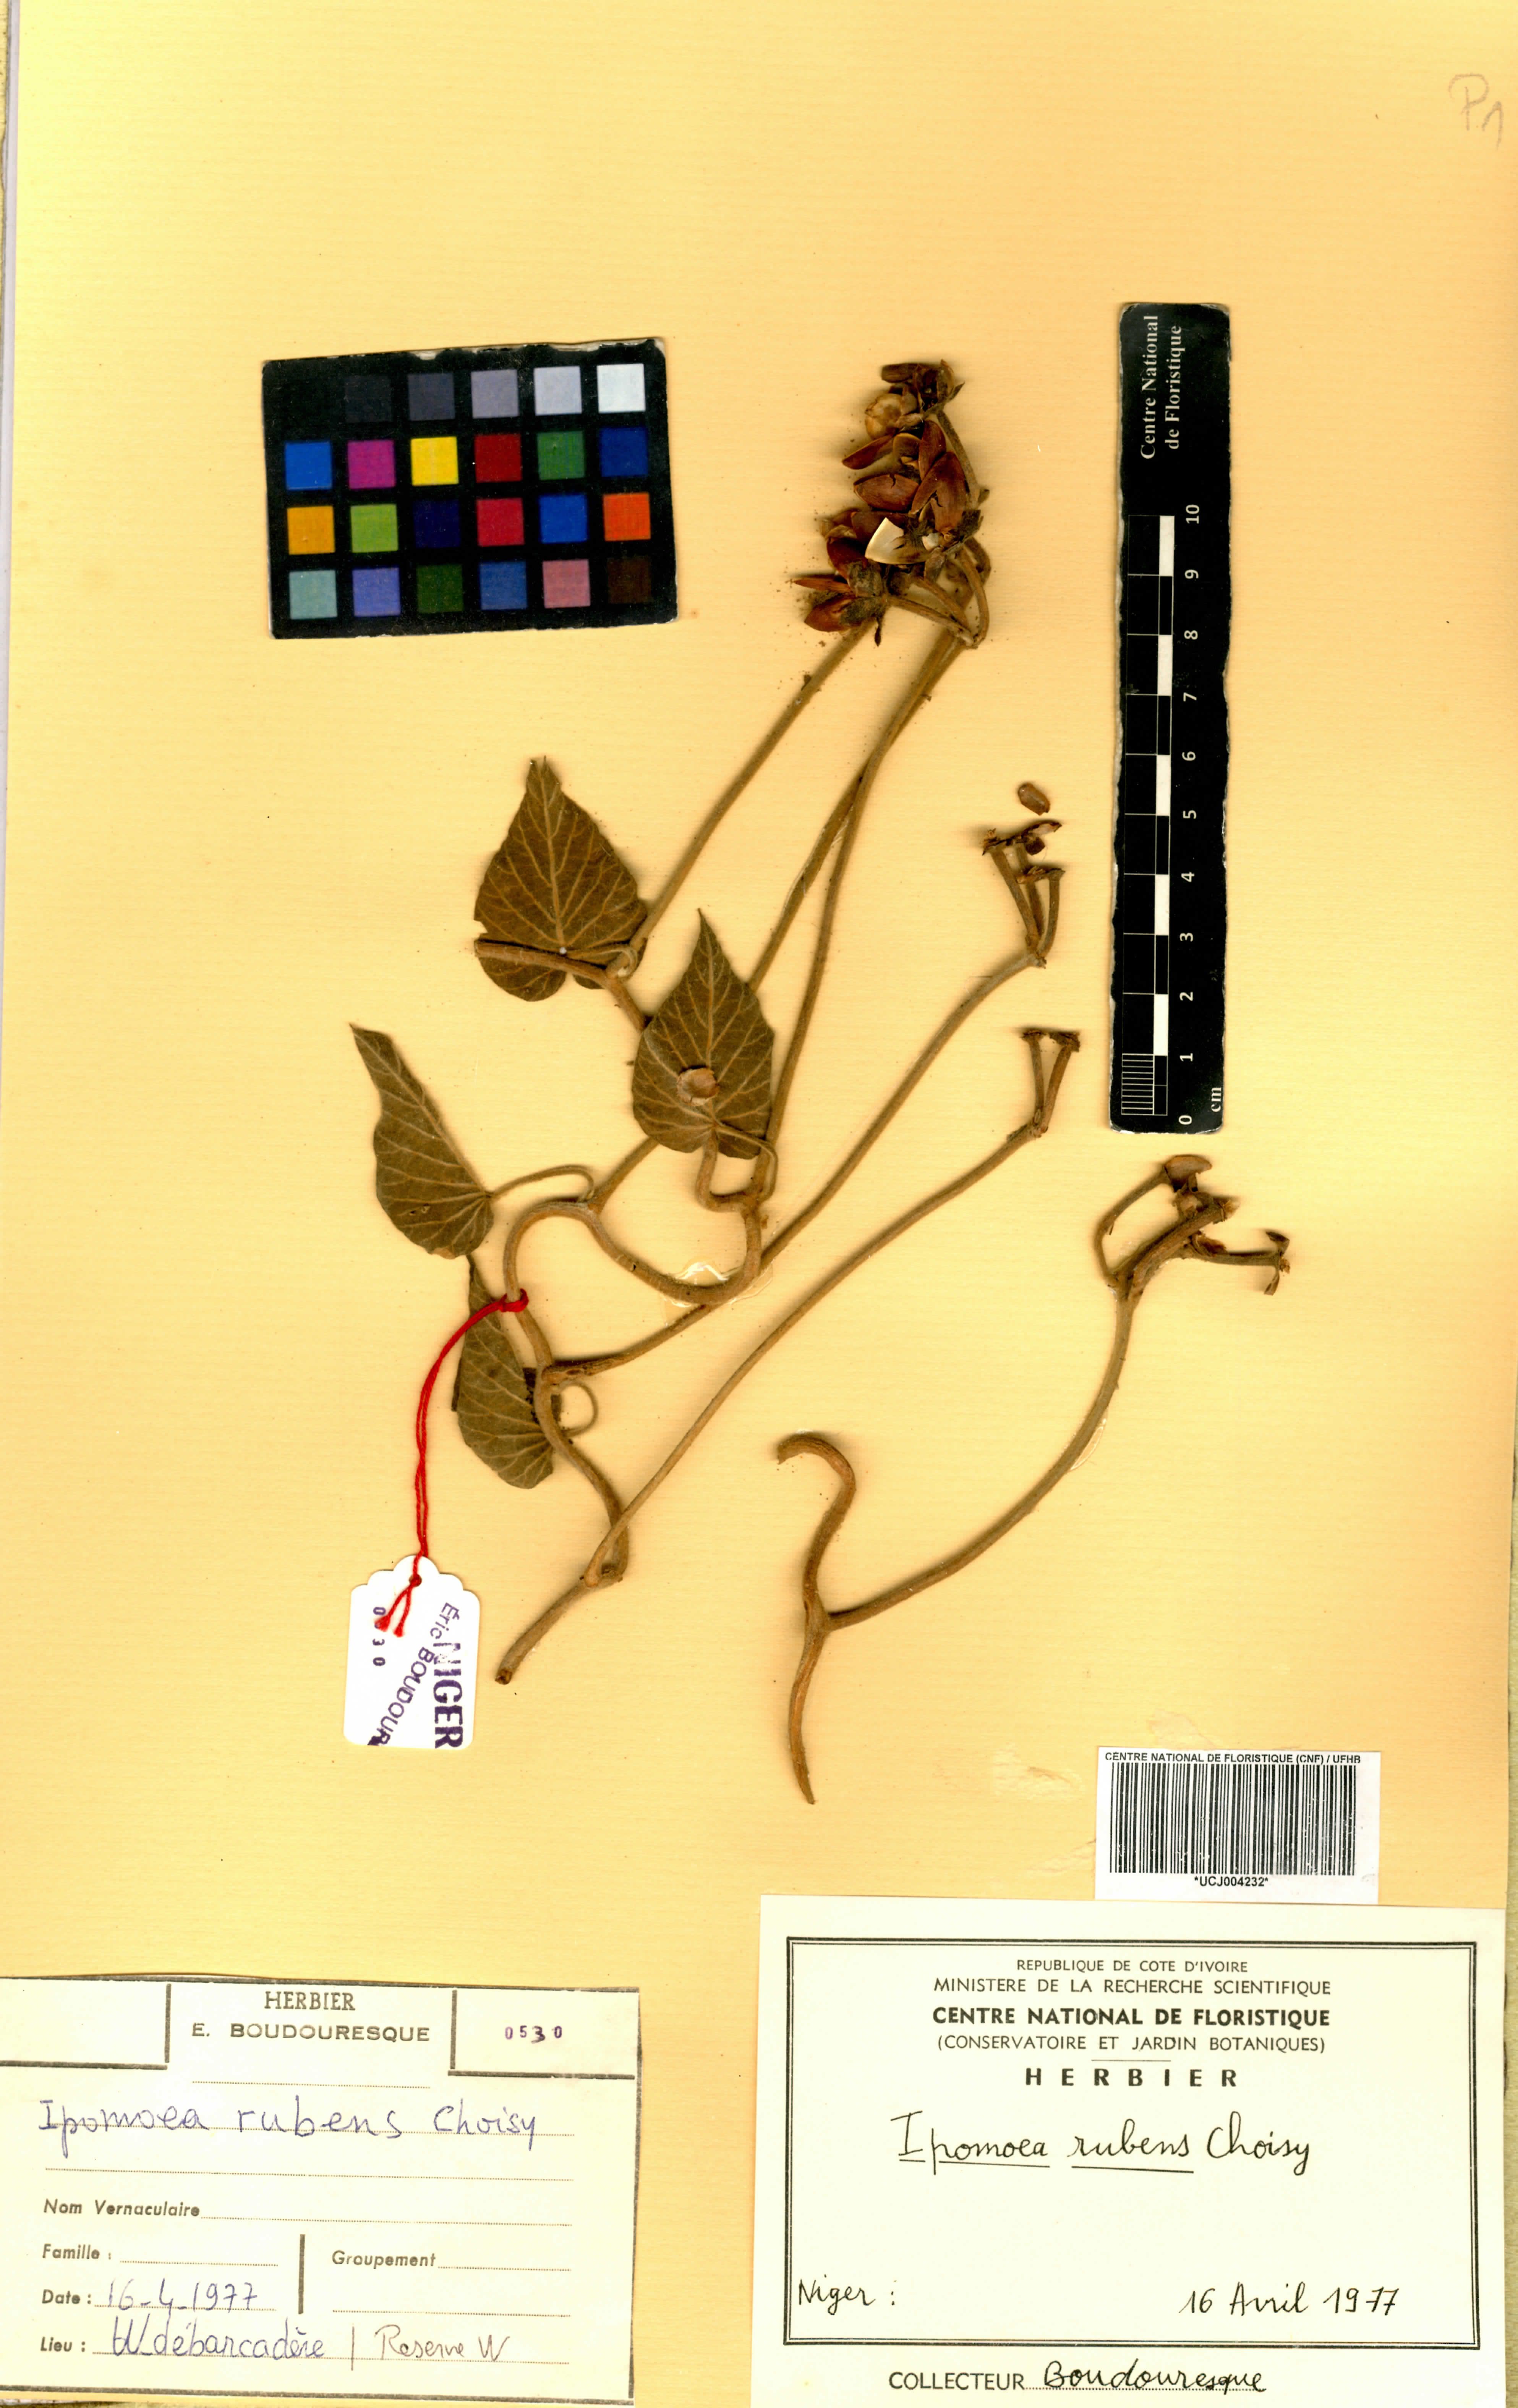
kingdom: Plantae
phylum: Tracheophyta
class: Magnoliopsida
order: Solanales
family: Convolvulaceae
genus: Ipomoea
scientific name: Ipomoea rubens
